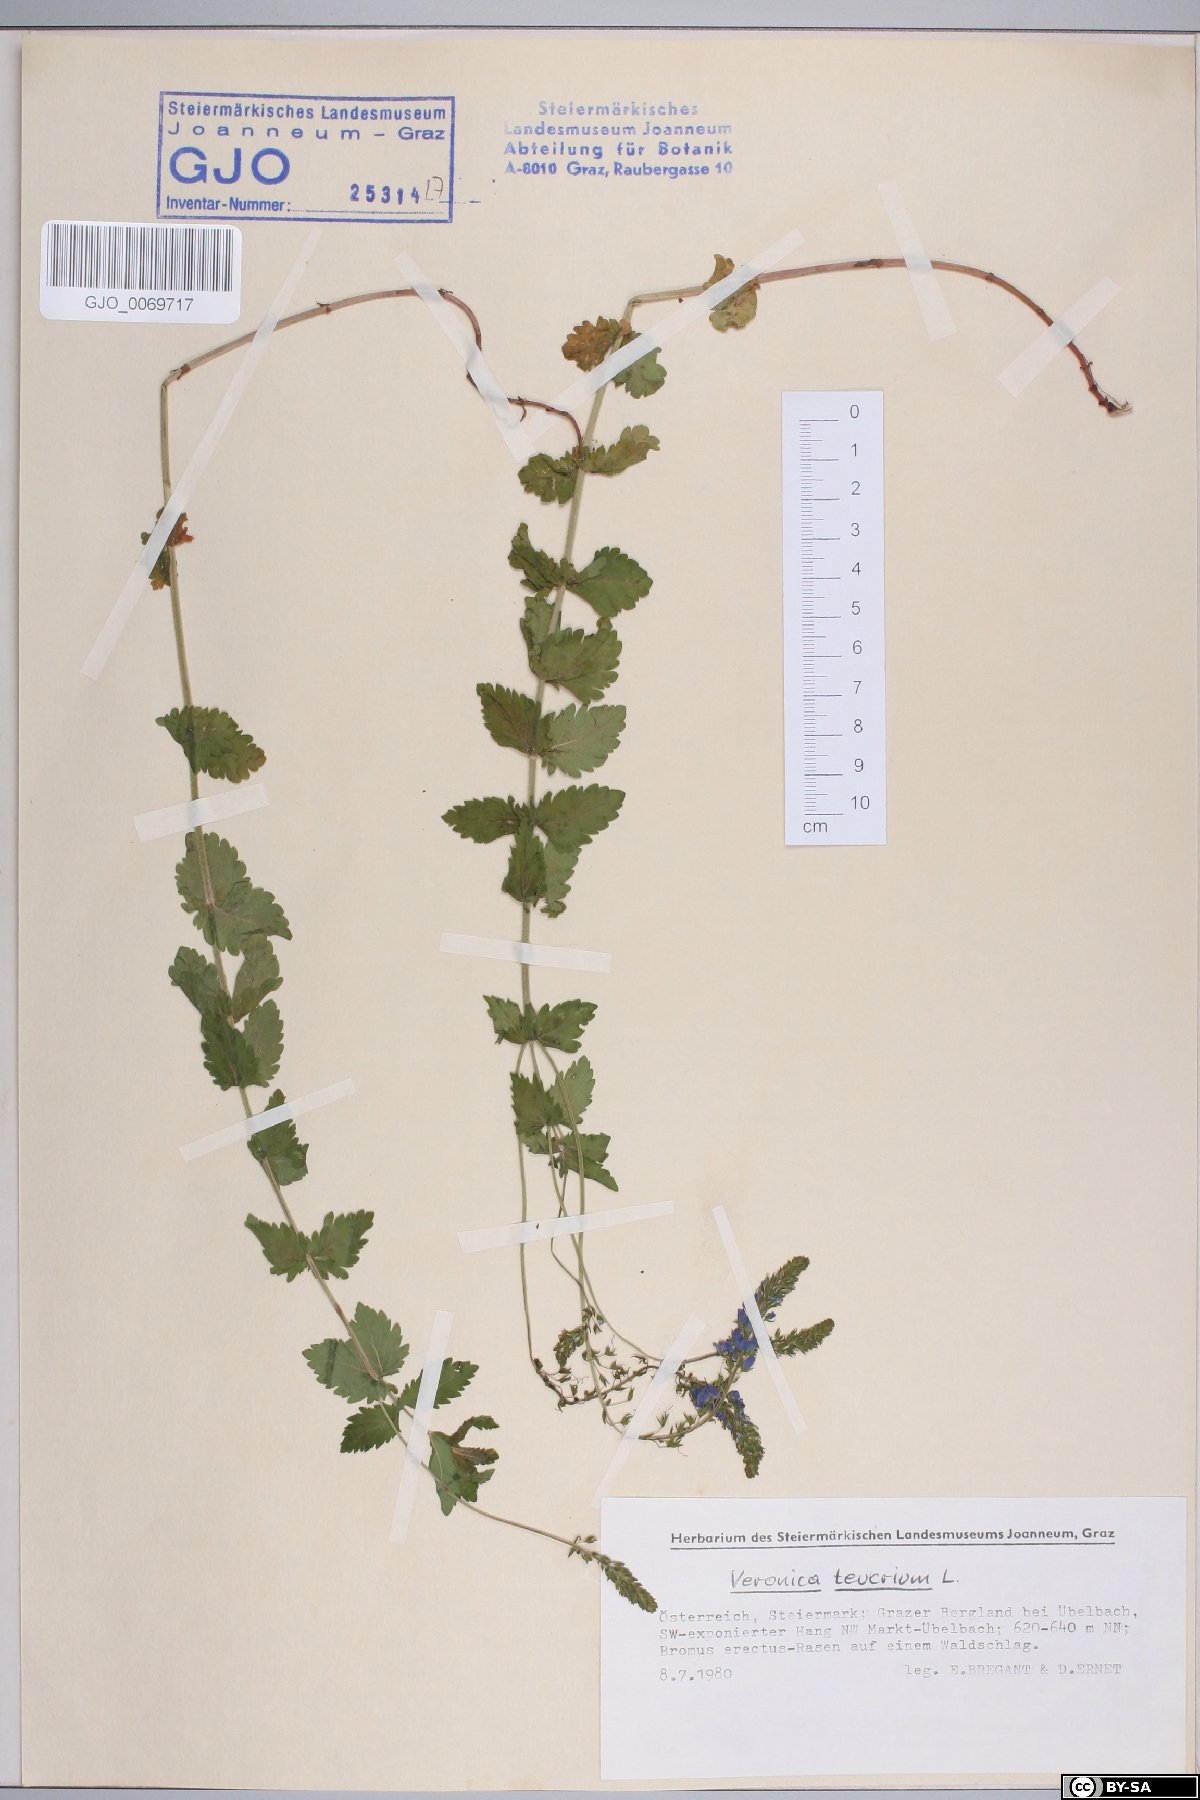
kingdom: Plantae
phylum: Tracheophyta
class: Magnoliopsida
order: Lamiales
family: Plantaginaceae
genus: Veronica
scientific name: Veronica teucrium
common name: Large speedwell
